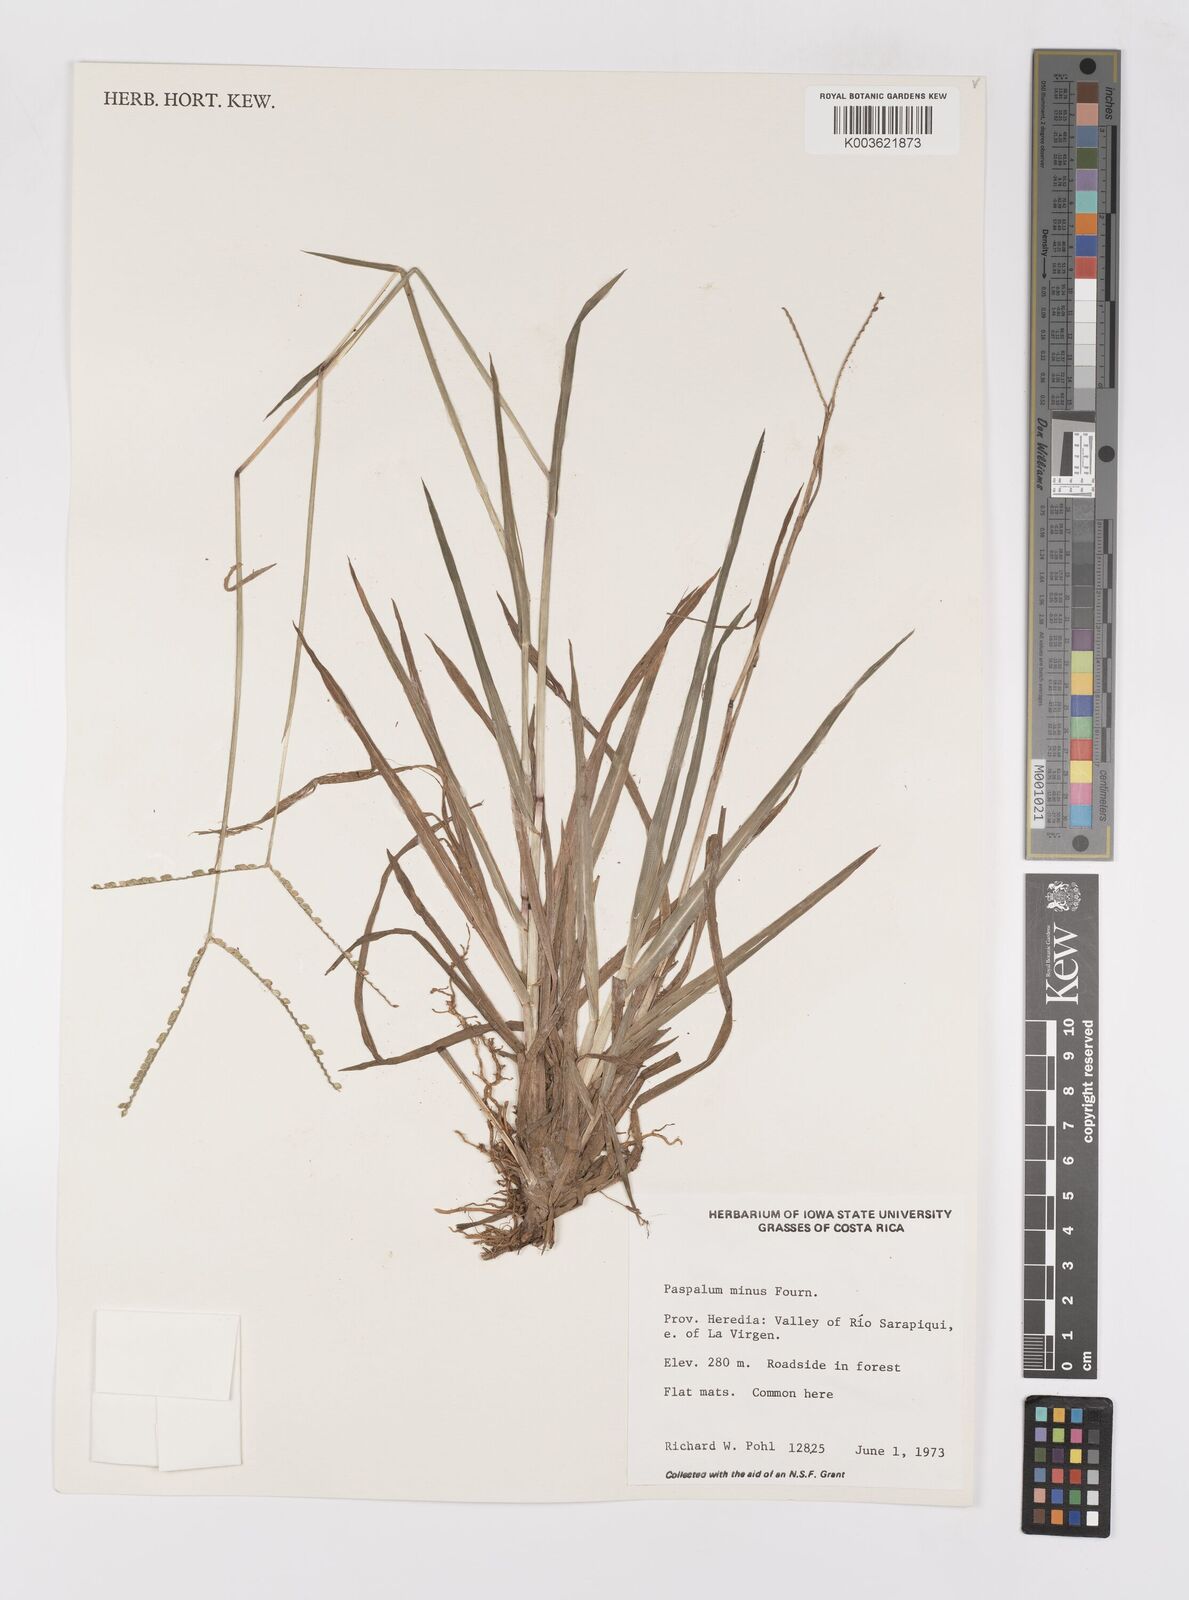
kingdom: Plantae
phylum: Tracheophyta
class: Liliopsida
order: Poales
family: Poaceae
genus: Paspalum
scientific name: Paspalum minus
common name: Matted paspalum
